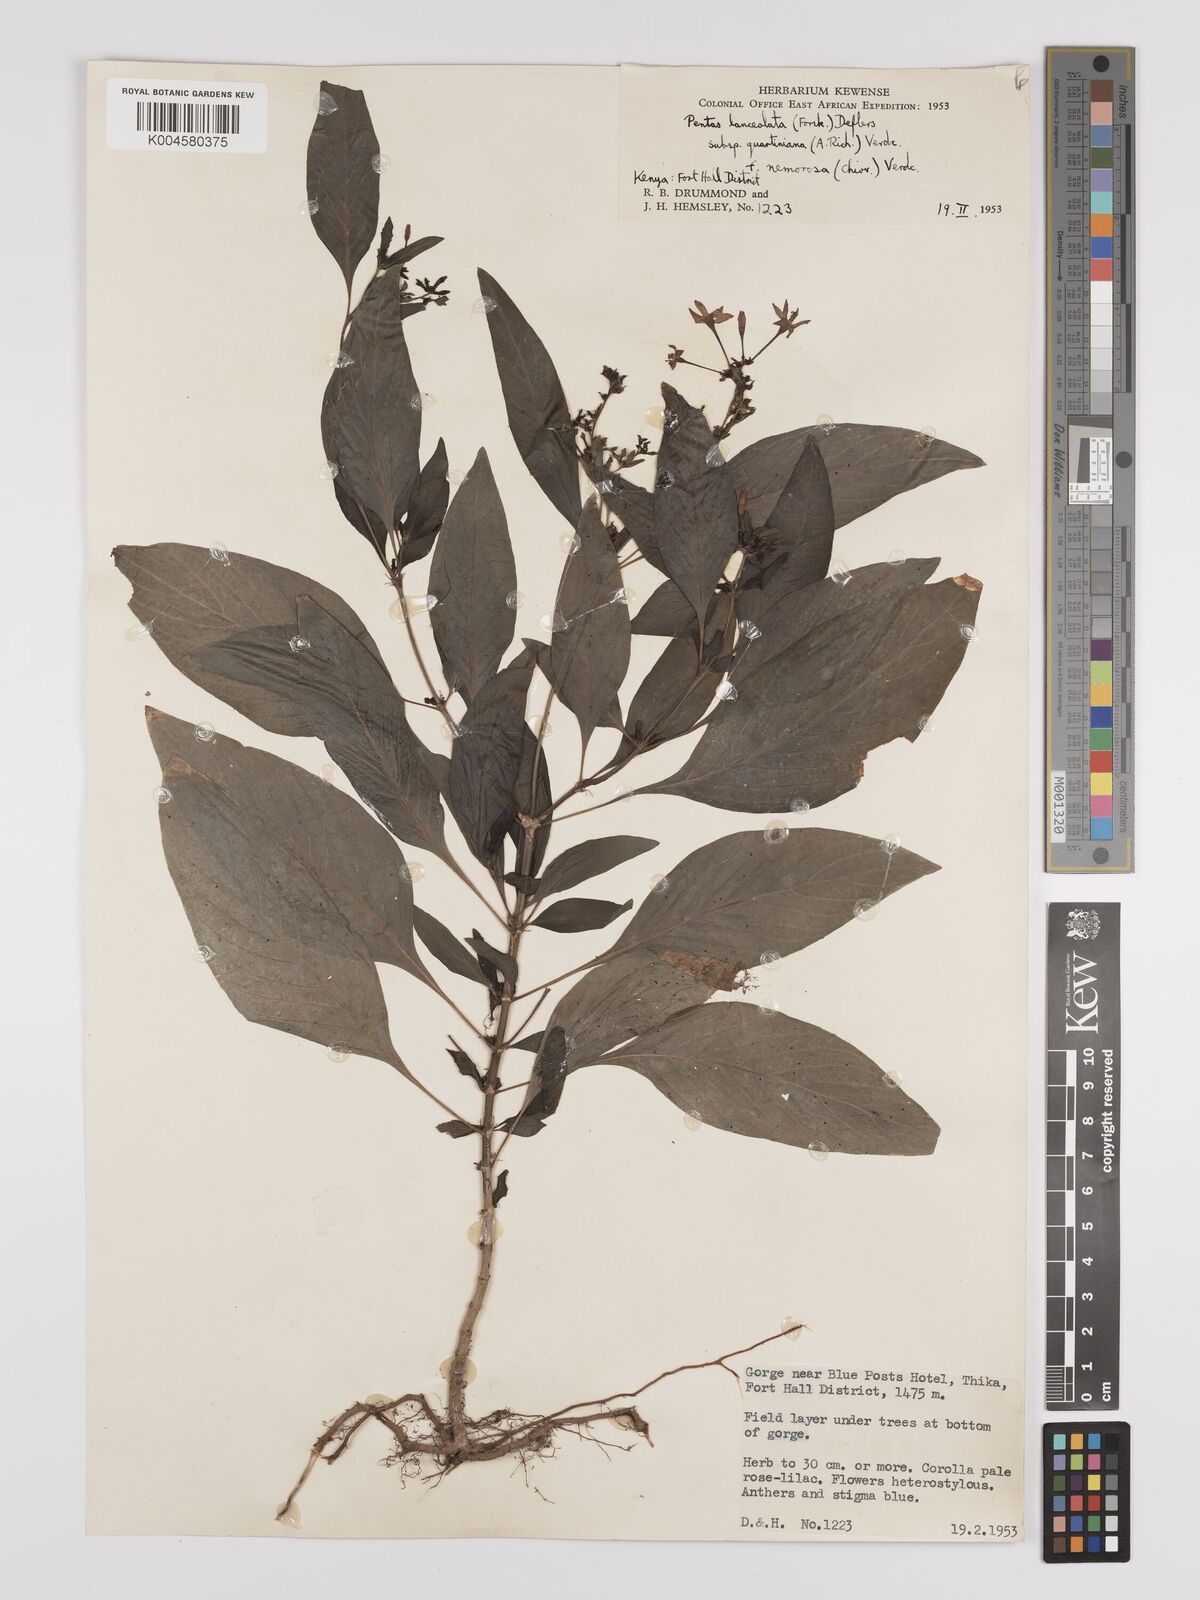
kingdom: Plantae
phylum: Tracheophyta
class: Magnoliopsida
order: Gentianales
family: Rubiaceae
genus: Pentas
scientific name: Pentas lanceolata
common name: Egyptian starcluster
